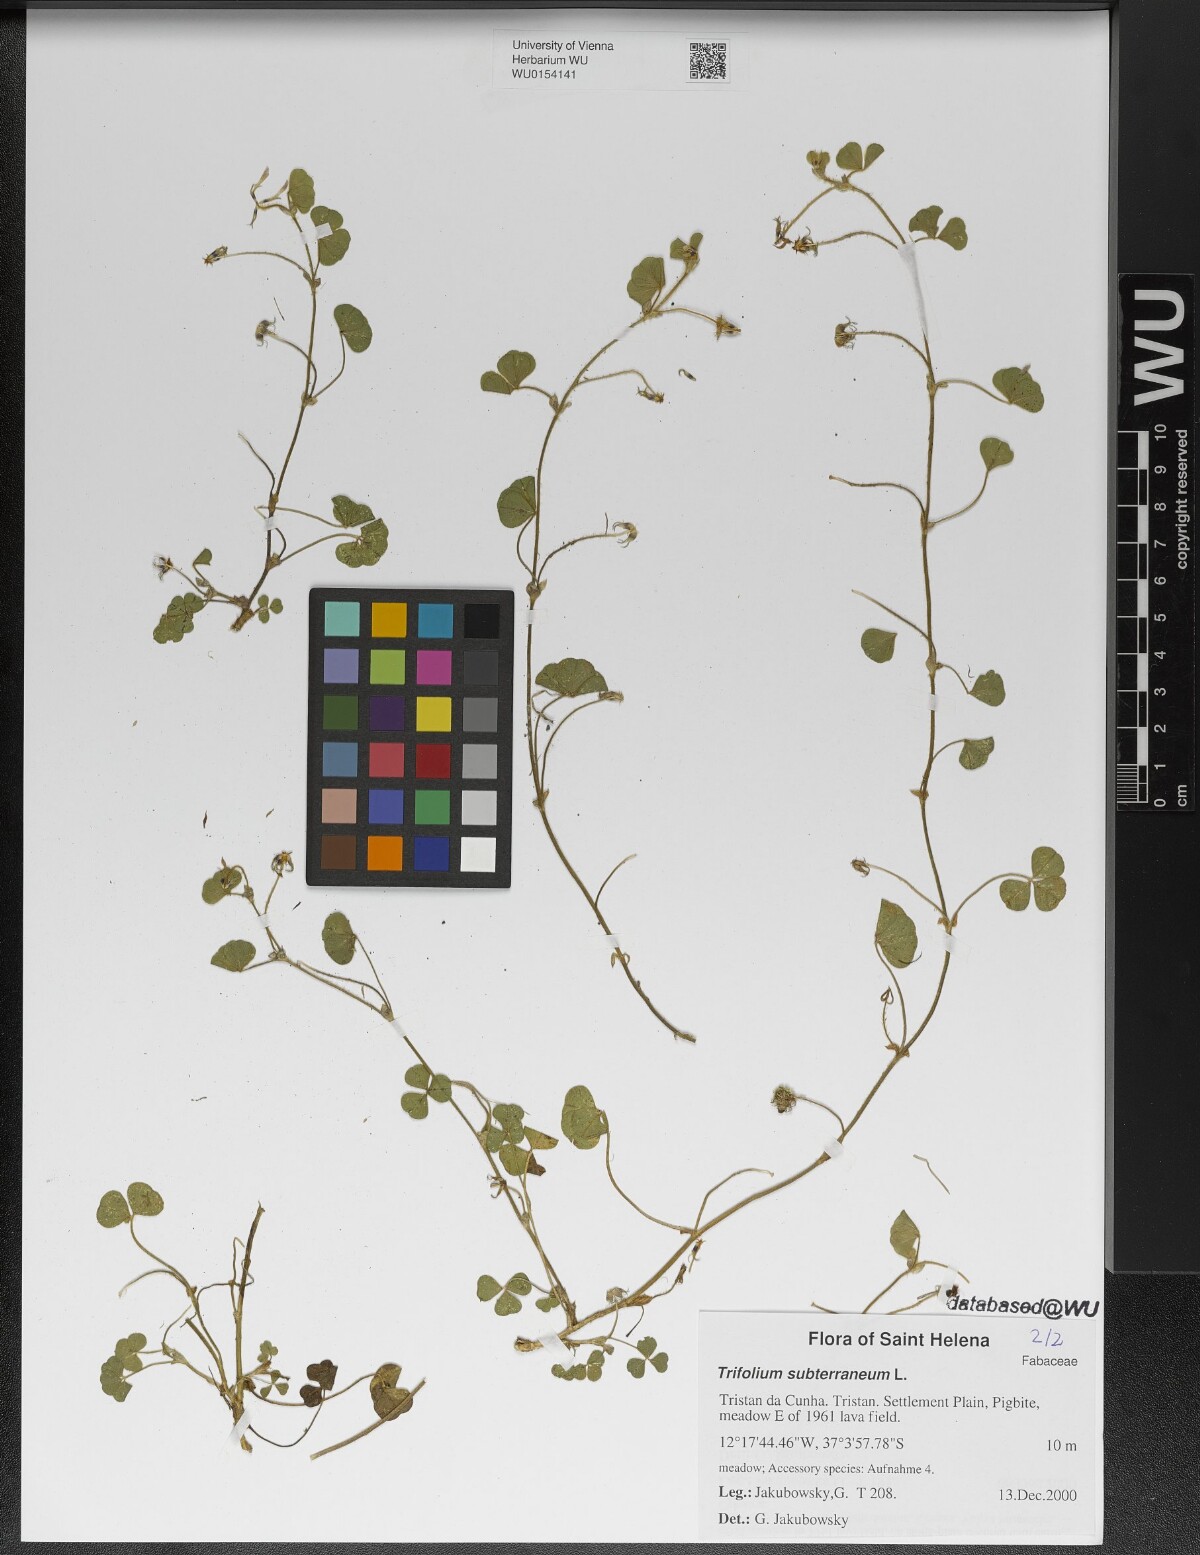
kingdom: Plantae
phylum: Tracheophyta
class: Magnoliopsida
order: Fabales
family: Fabaceae
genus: Trifolium
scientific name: Trifolium subterraneum
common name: Subterranean clover
